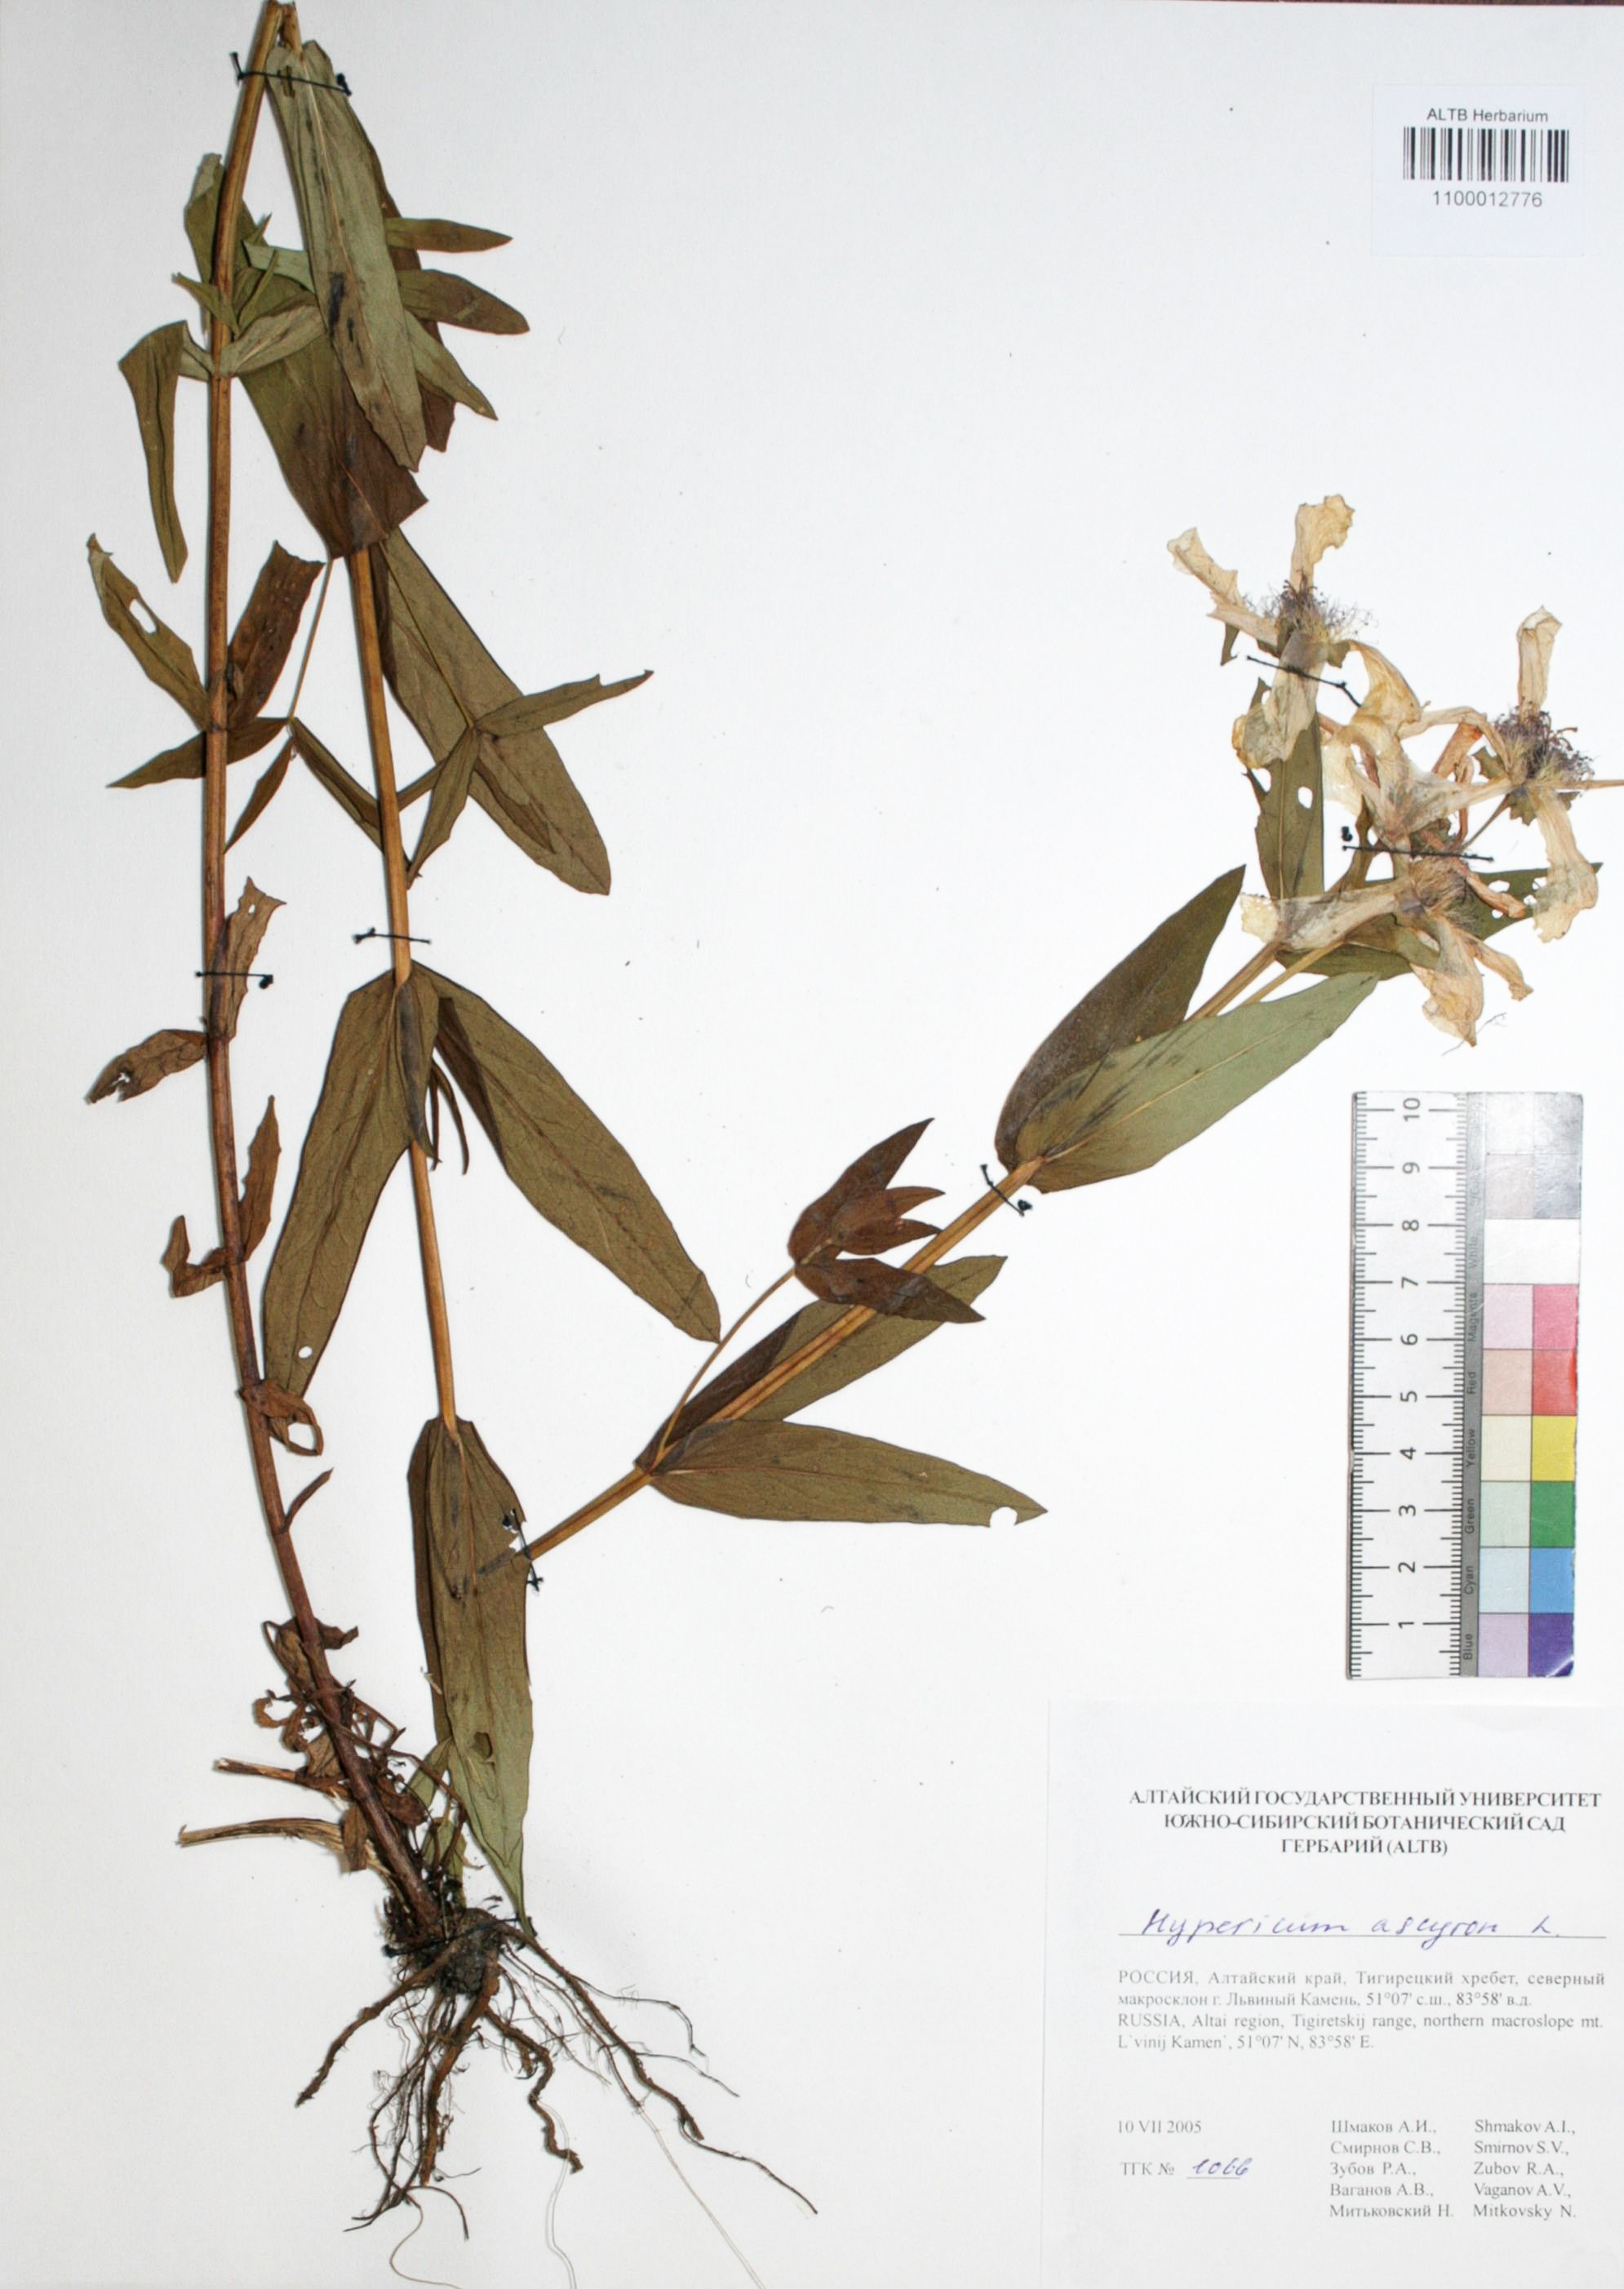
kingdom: Plantae
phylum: Tracheophyta
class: Magnoliopsida
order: Malpighiales
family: Hypericaceae
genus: Hypericum
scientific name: Hypericum ascyron
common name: Giant st. john's-wort
